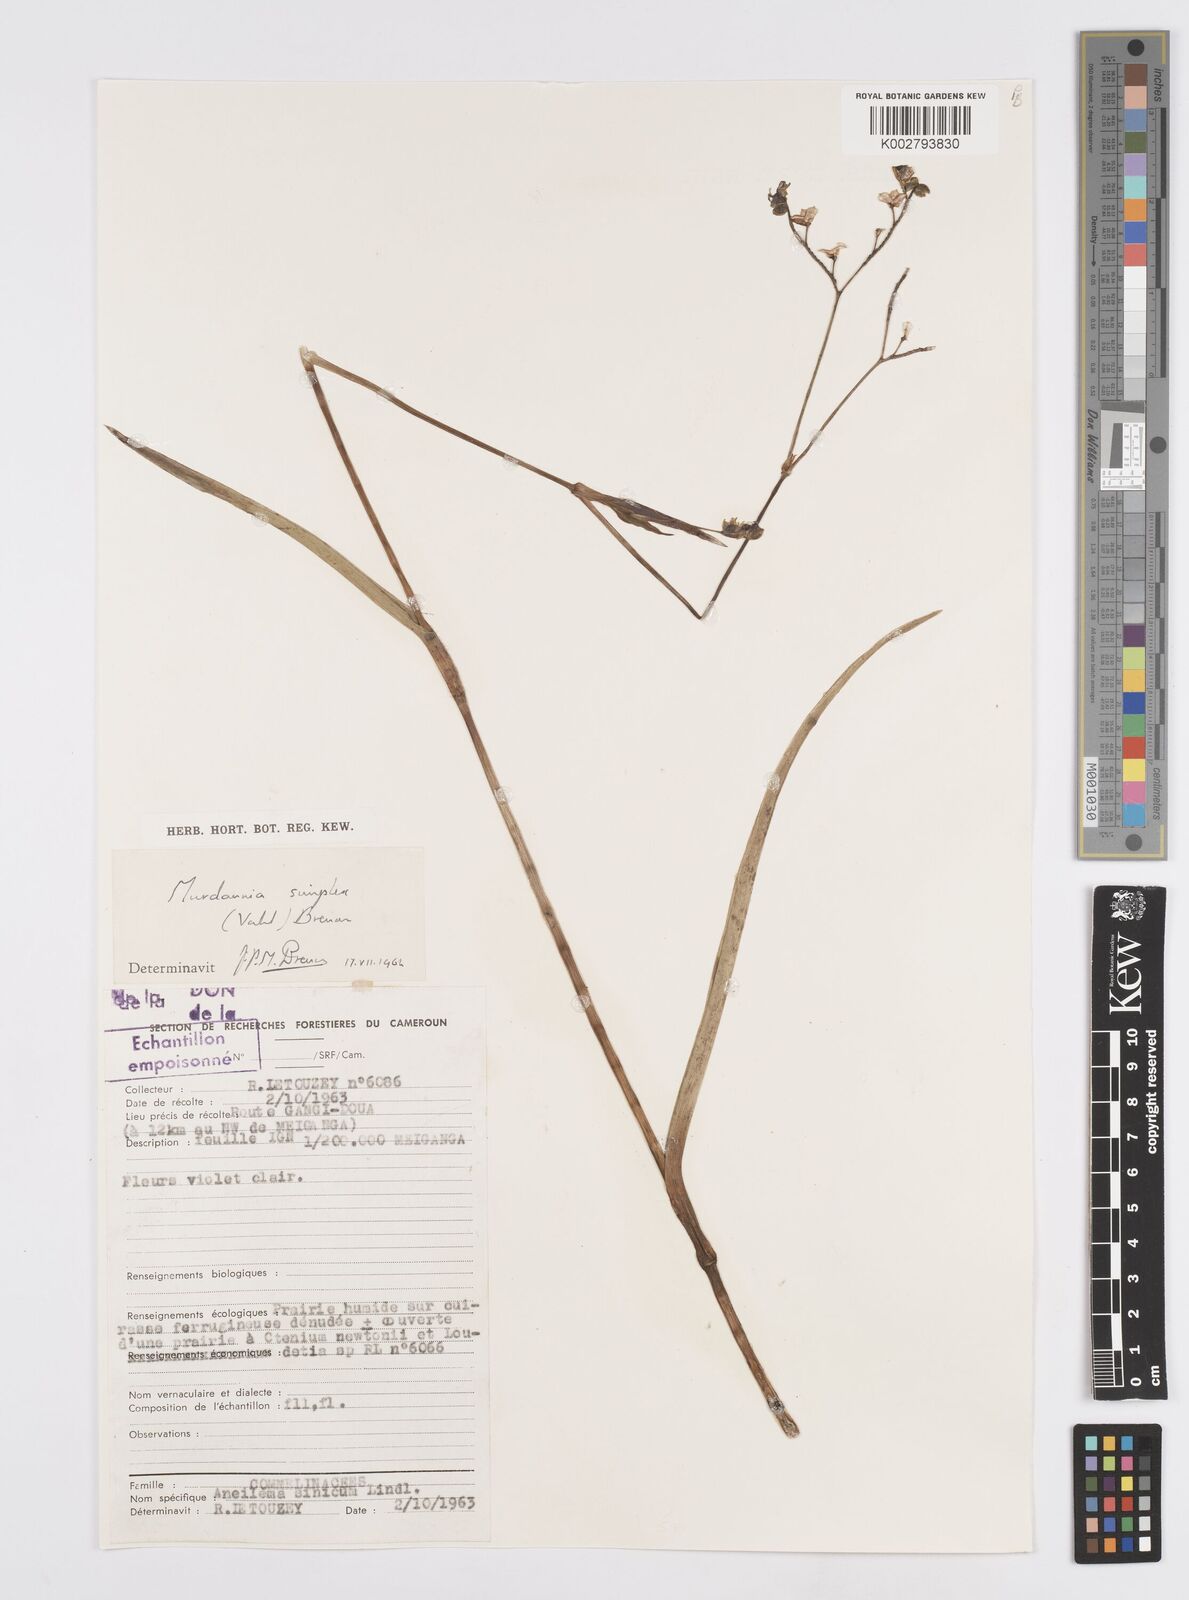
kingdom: Plantae
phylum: Tracheophyta
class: Liliopsida
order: Commelinales
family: Commelinaceae
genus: Murdannia
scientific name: Murdannia simplex
